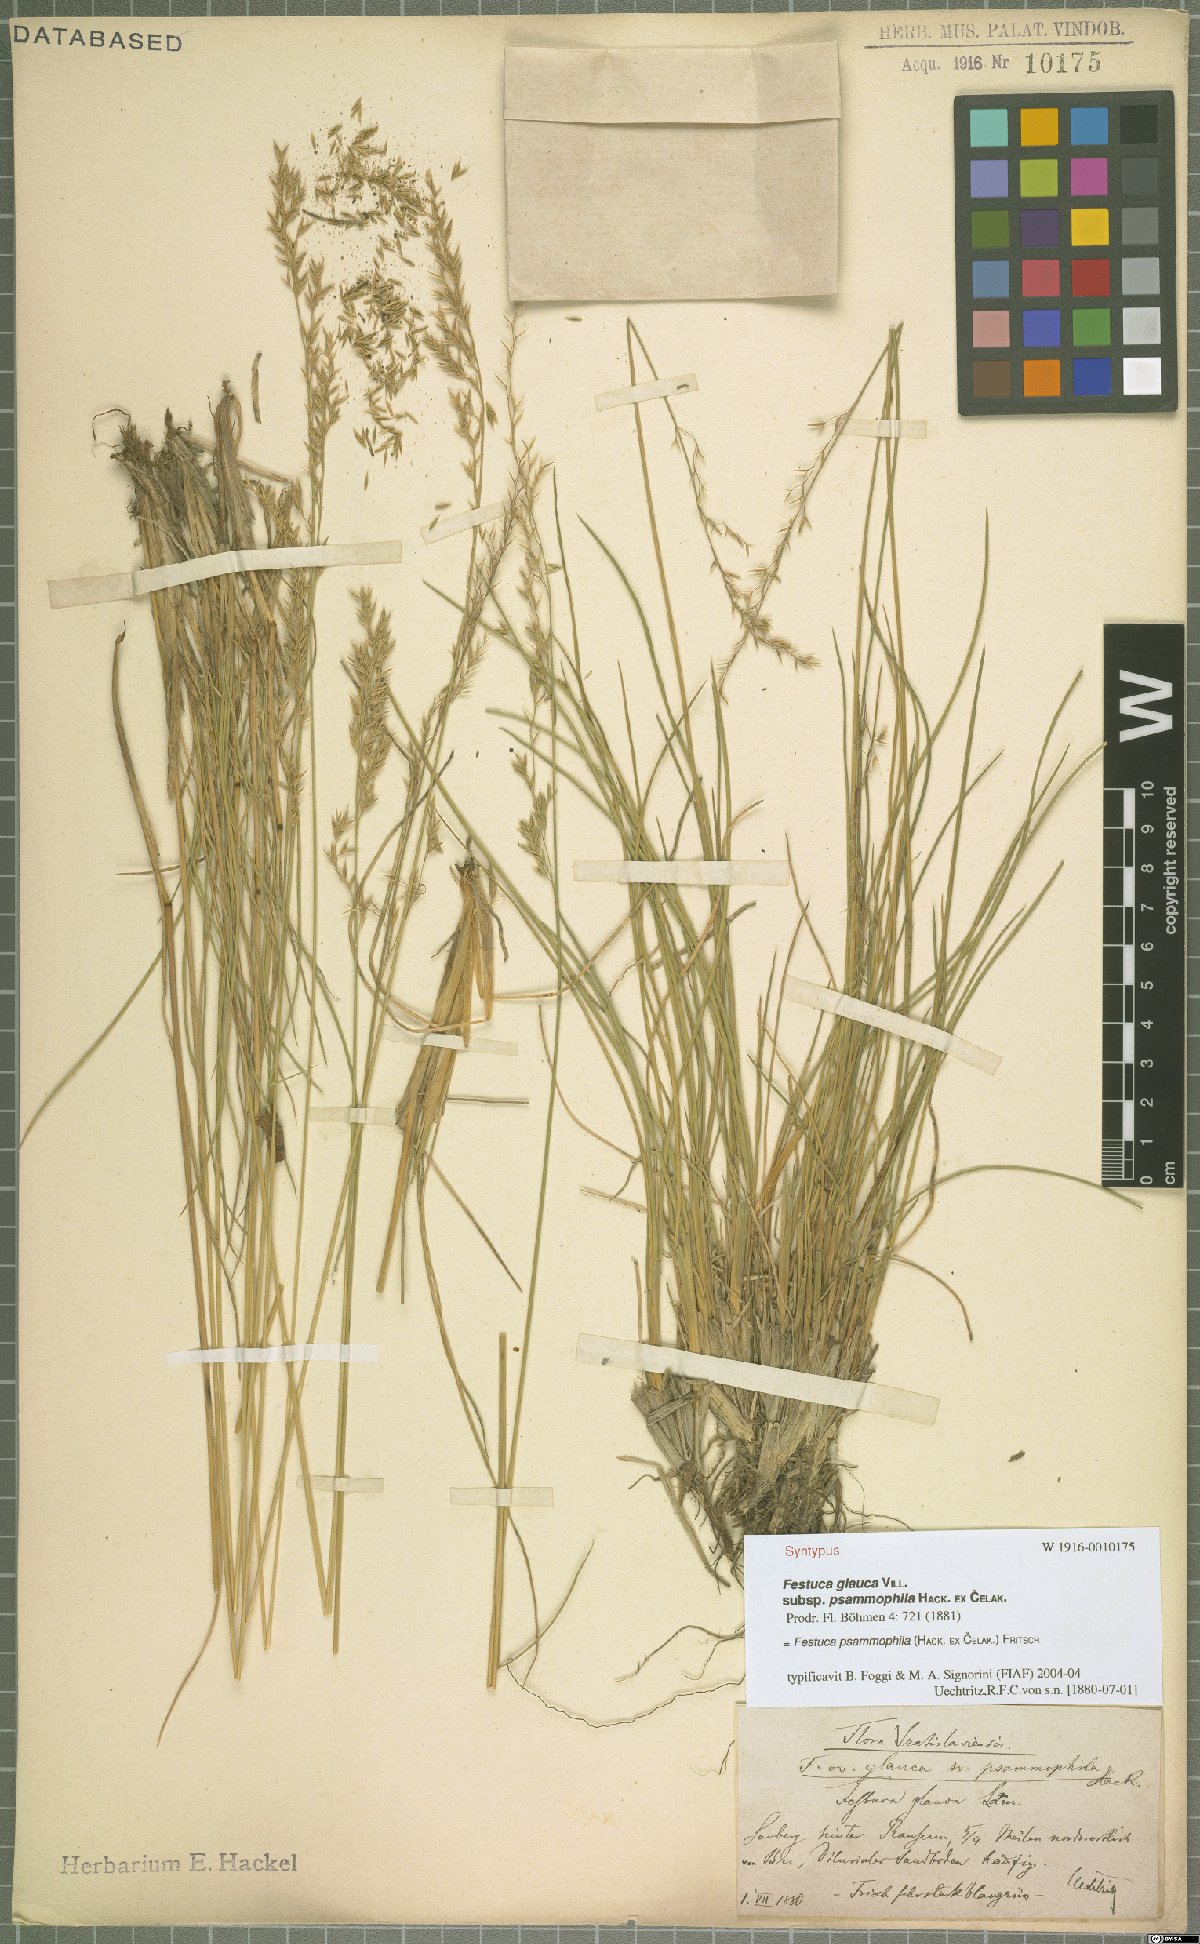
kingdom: Plantae
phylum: Tracheophyta
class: Liliopsida
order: Poales
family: Poaceae
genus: Festuca
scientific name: Festuca psammophila
